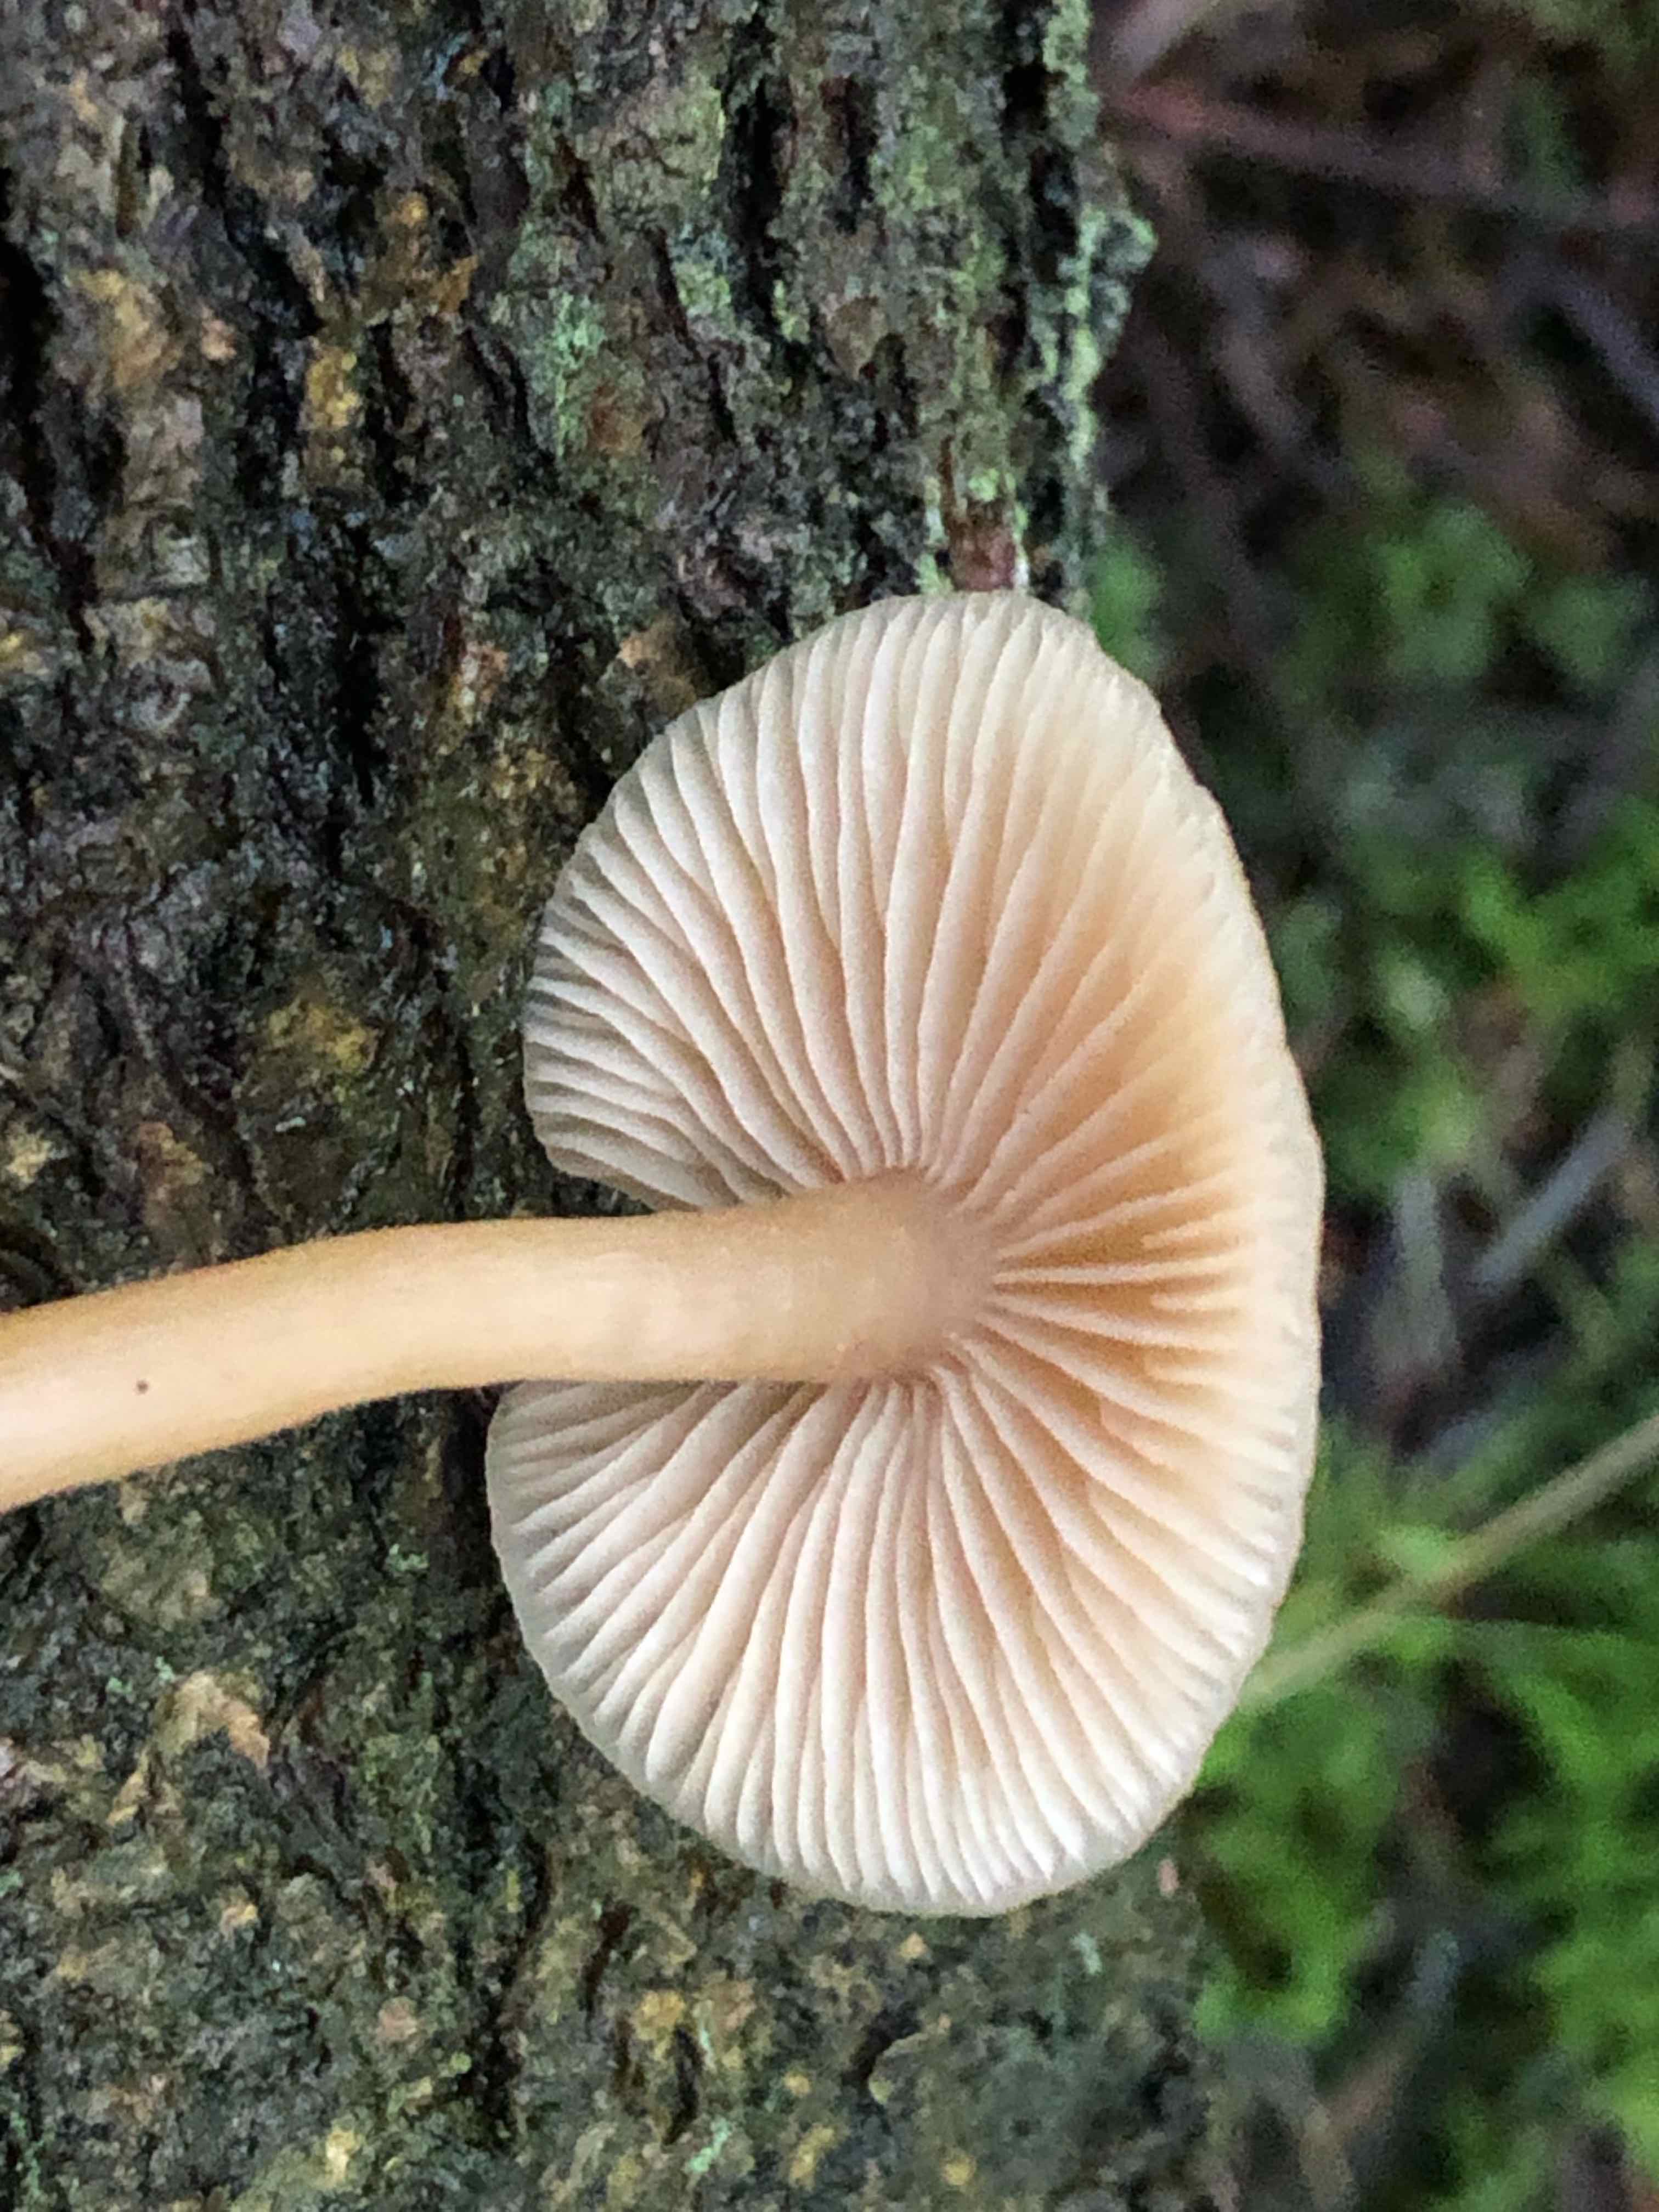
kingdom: Fungi
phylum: Basidiomycota
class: Agaricomycetes
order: Agaricales
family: Tricholomataceae
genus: Clitocybe
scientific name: Clitocybe fragrans
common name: vellugtende tragthat
